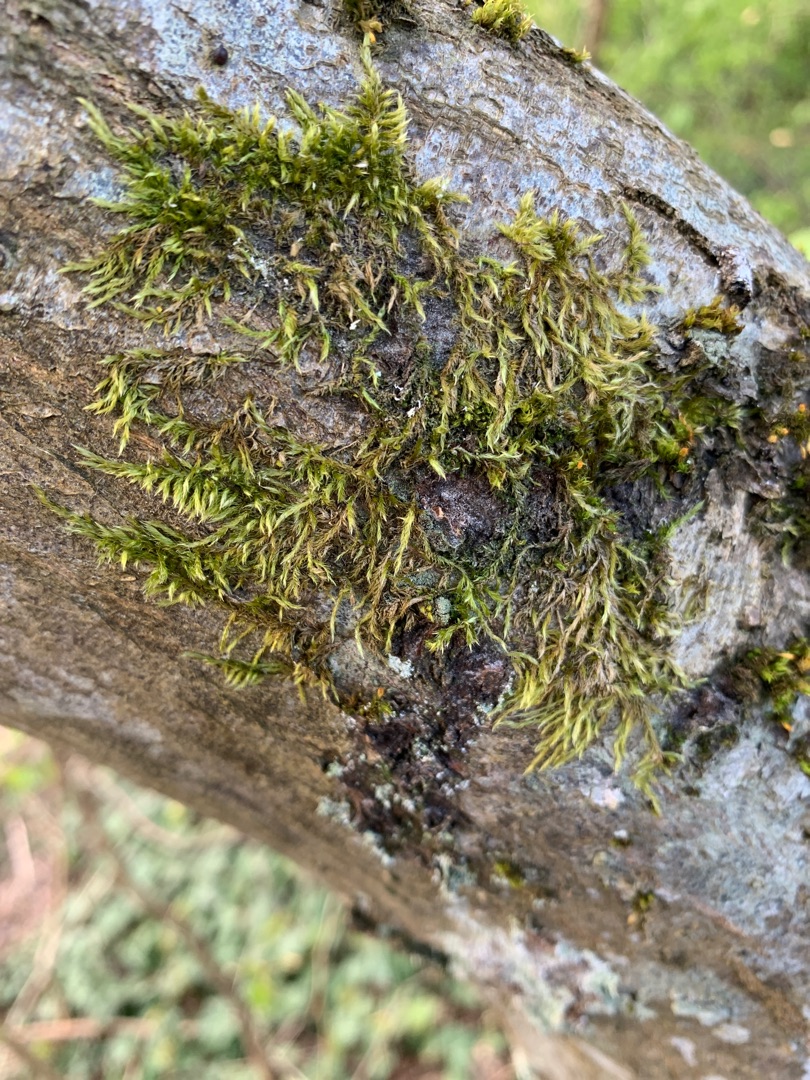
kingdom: Plantae
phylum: Bryophyta
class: Bryopsida
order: Hypnales
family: Hypnaceae
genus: Hypnum
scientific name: Hypnum cupressiforme
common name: Almindelig cypresmos
